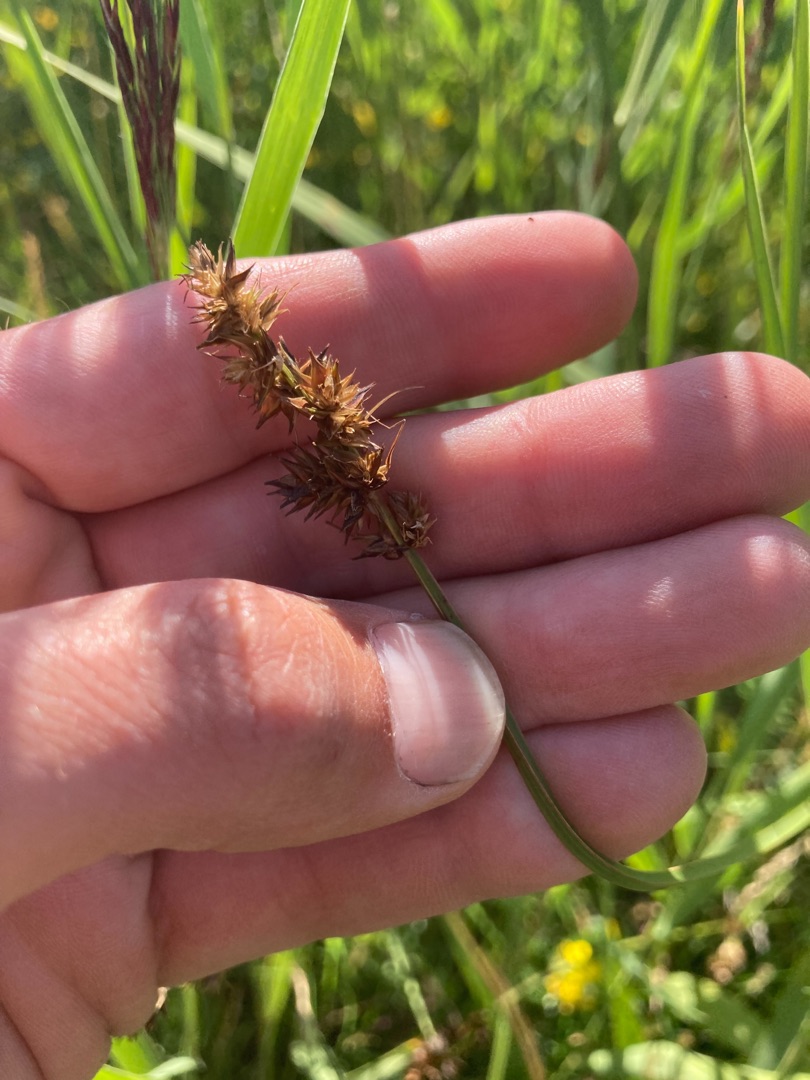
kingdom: Plantae
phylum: Tracheophyta
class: Liliopsida
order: Poales
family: Cyperaceae
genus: Carex
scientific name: Carex otrubae
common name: Sylt-star
